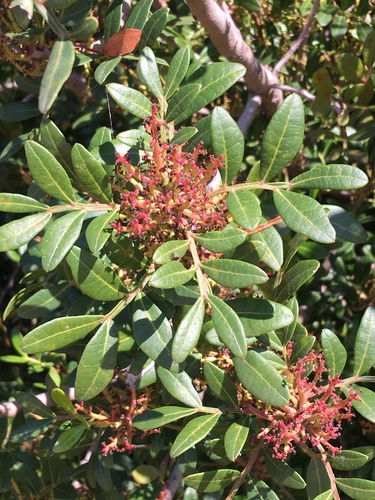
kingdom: Plantae
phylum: Tracheophyta
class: Magnoliopsida
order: Sapindales
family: Anacardiaceae
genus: Pistacia
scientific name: Pistacia lentiscus
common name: Lentisk
